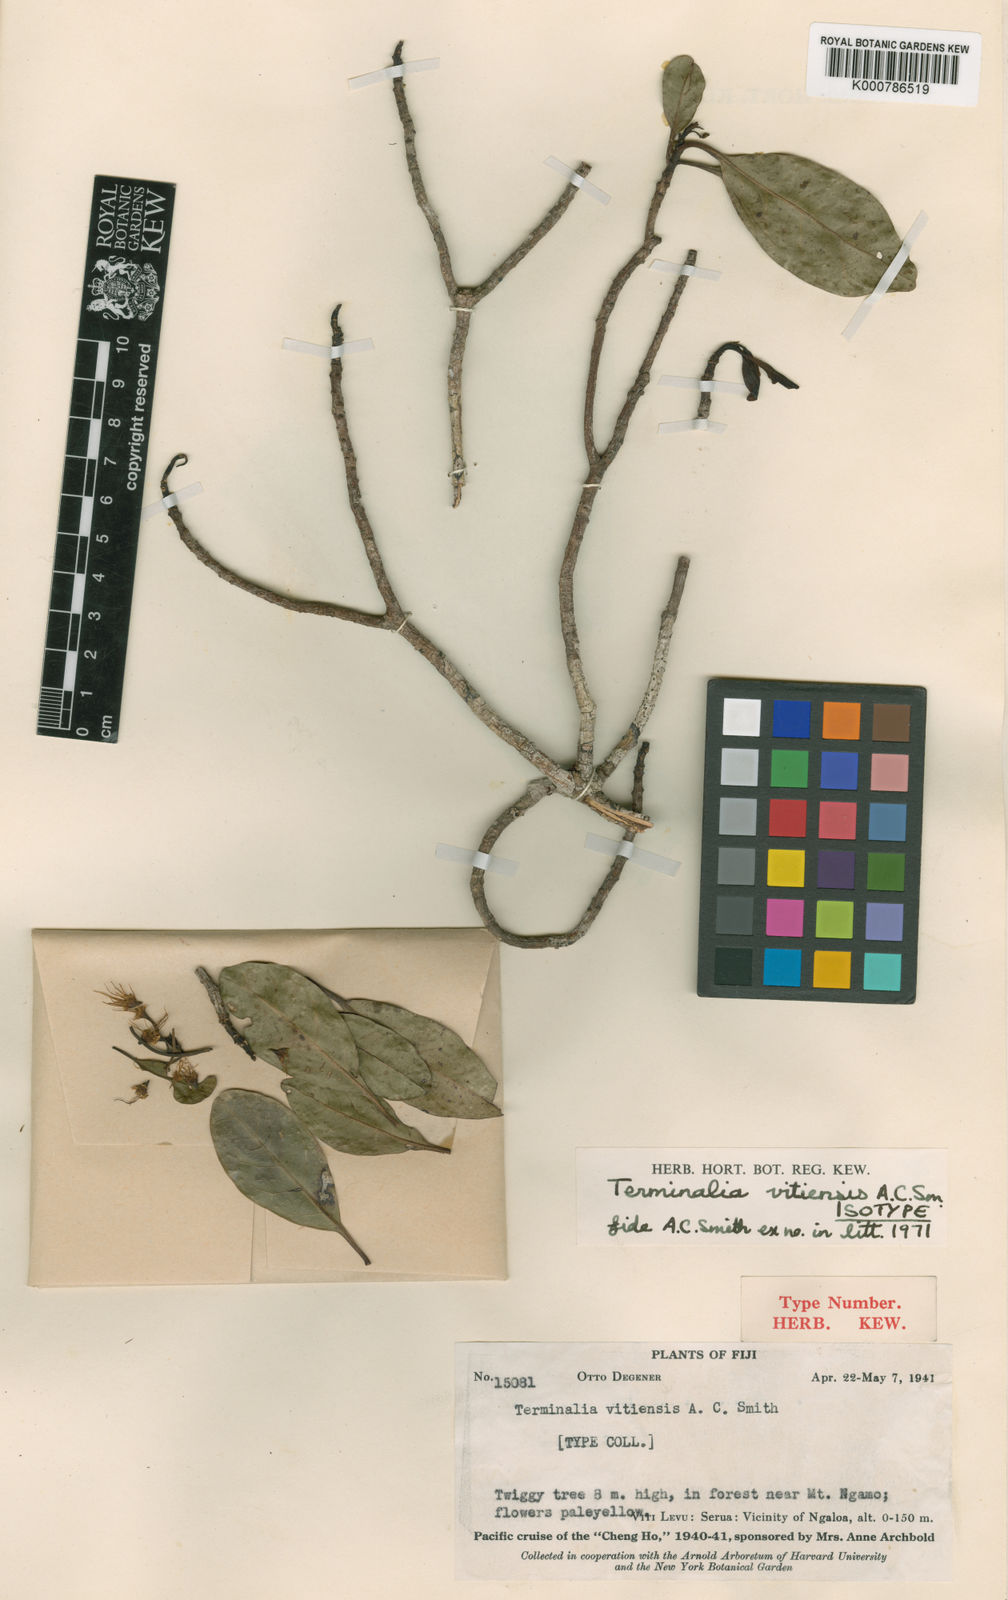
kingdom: Plantae
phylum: Tracheophyta
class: Magnoliopsida
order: Myrtales
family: Combretaceae
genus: Terminalia
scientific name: Terminalia vitiensis
